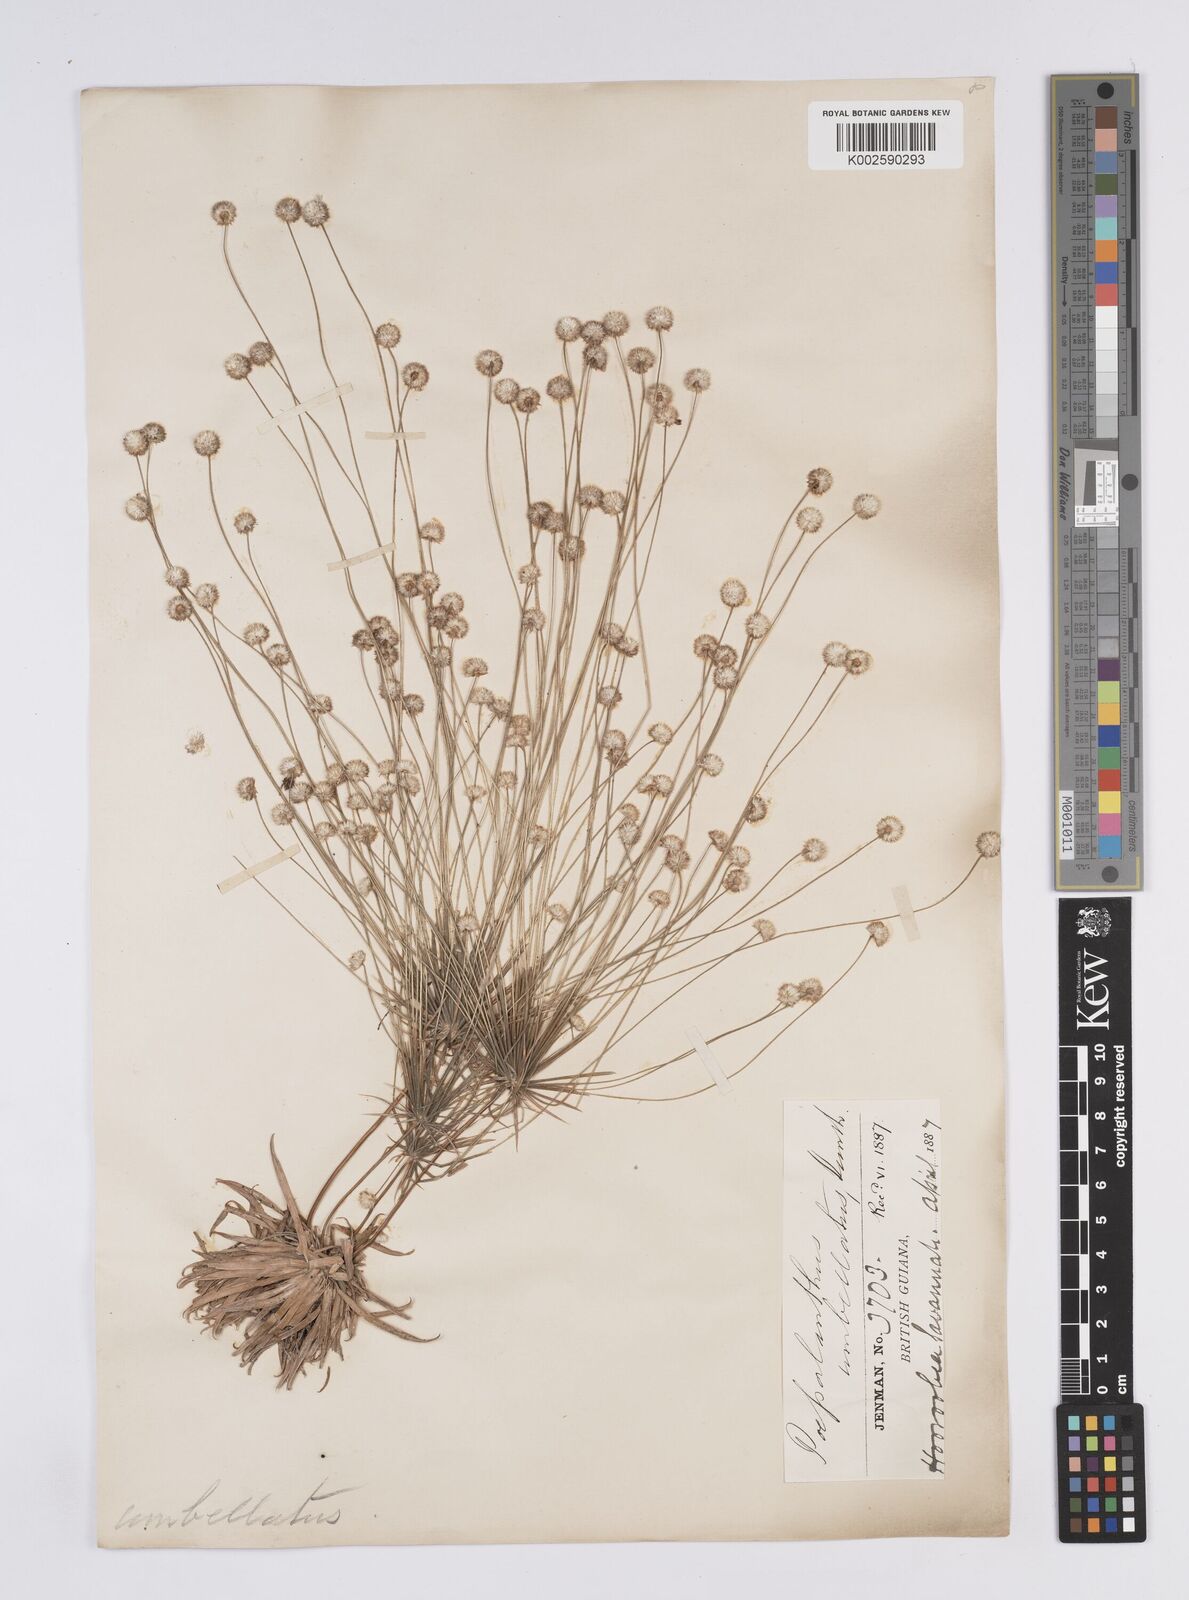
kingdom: Plantae
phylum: Tracheophyta
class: Liliopsida
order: Poales
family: Eriocaulaceae
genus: Syngonanthus
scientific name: Syngonanthus umbellatus
